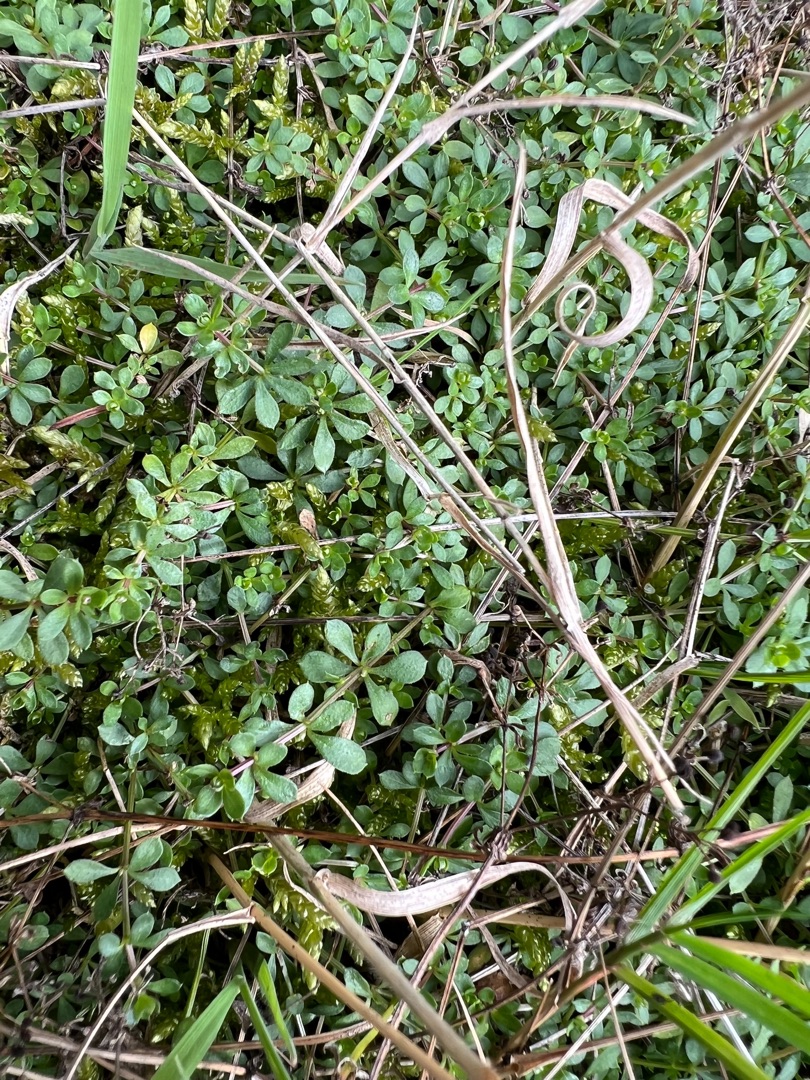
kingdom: Plantae
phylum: Tracheophyta
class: Magnoliopsida
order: Gentianales
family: Rubiaceae
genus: Galium
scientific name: Galium saxatile
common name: Lyng-snerre
